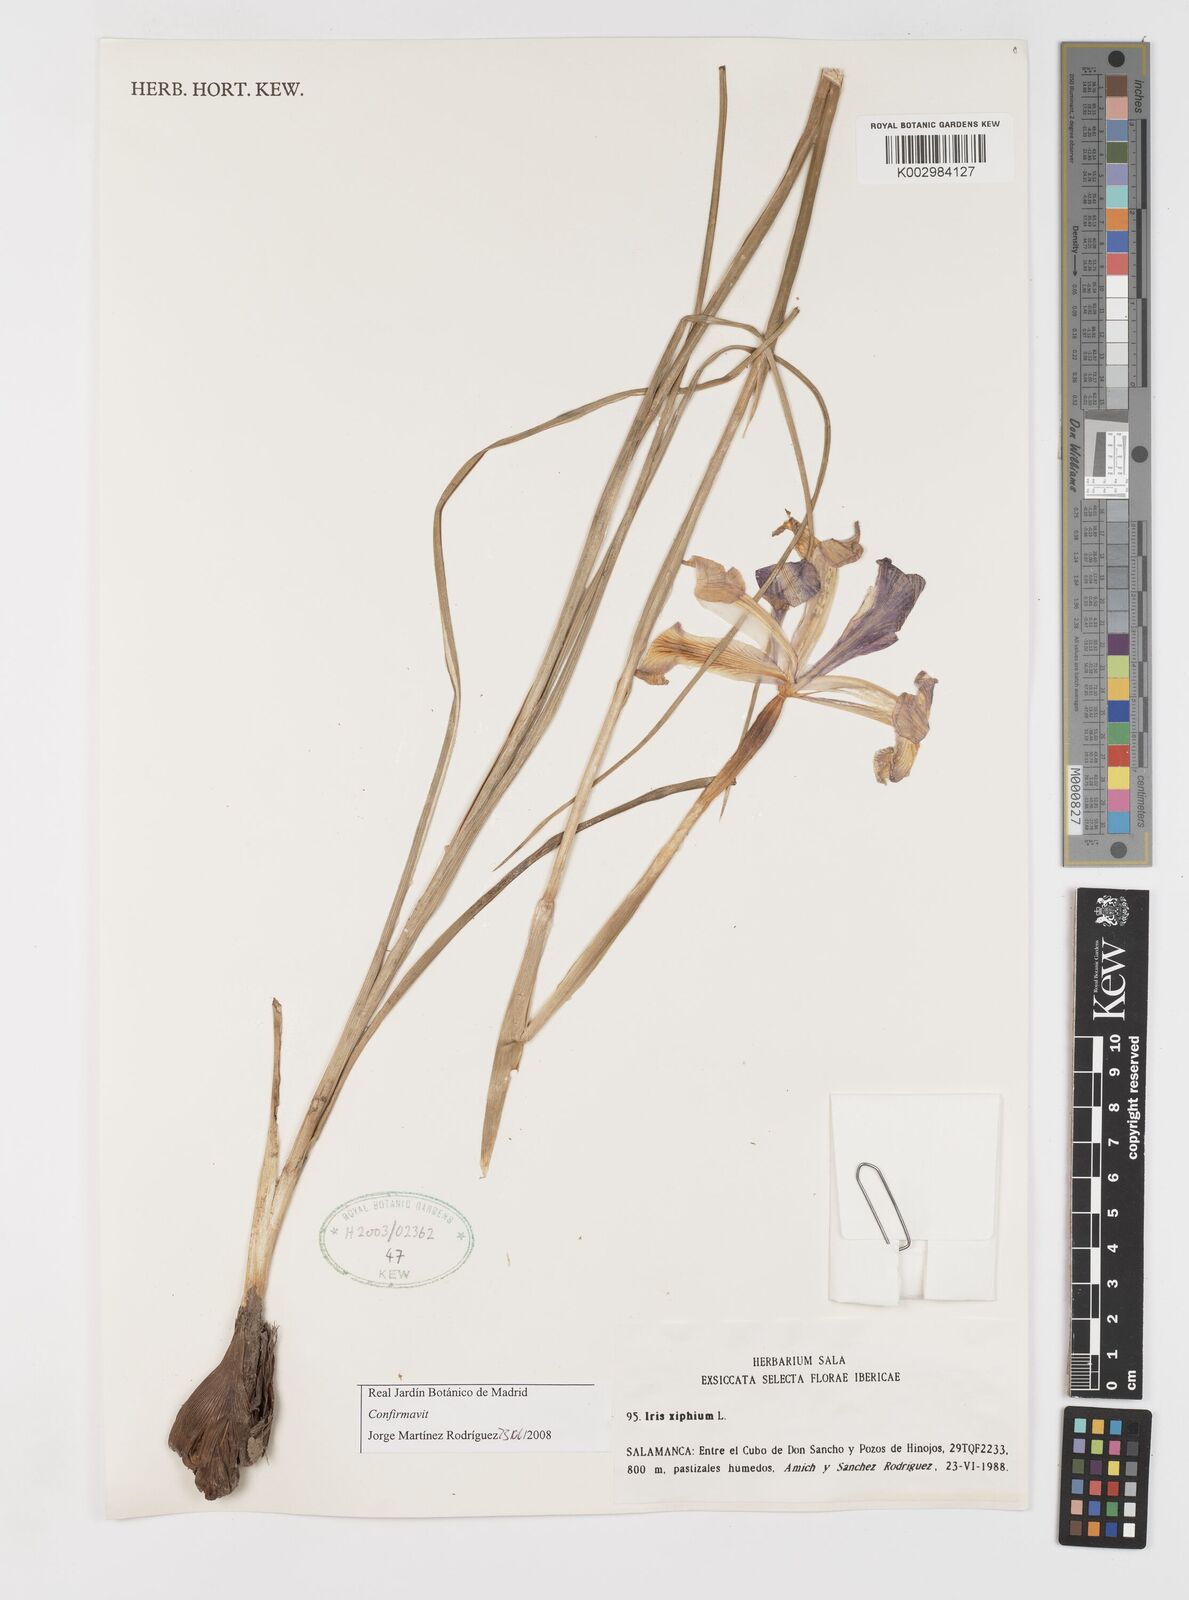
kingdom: Plantae
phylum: Tracheophyta
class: Liliopsida
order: Asparagales
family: Iridaceae
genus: Iris
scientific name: Iris xiphium
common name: Spanish iris
